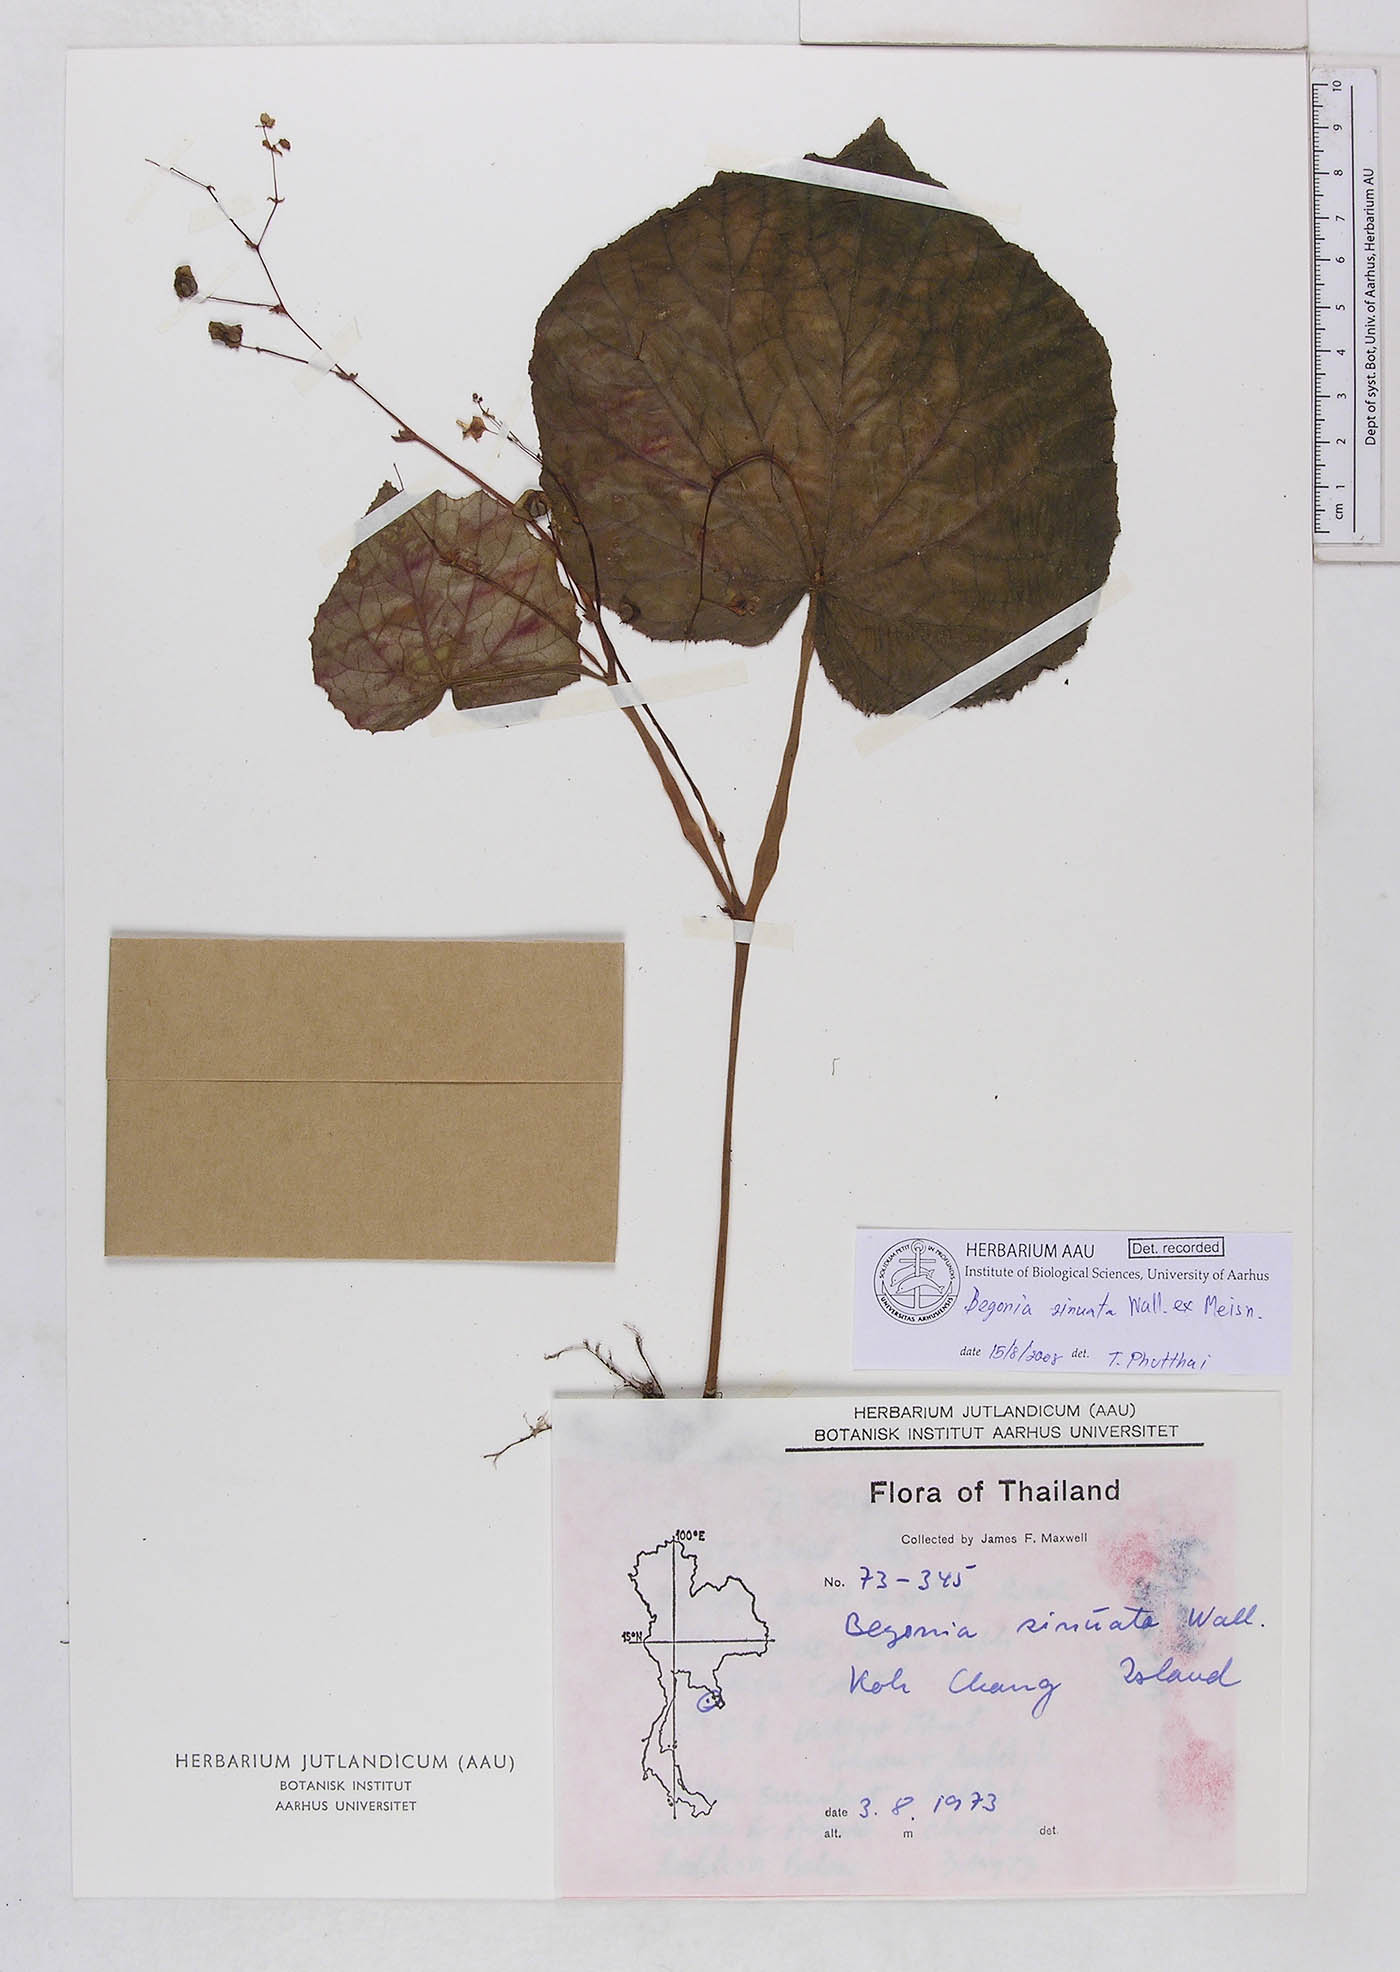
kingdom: Plantae
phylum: Tracheophyta
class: Magnoliopsida
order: Cucurbitales
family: Begoniaceae
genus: Begonia
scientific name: Begonia sinuata
